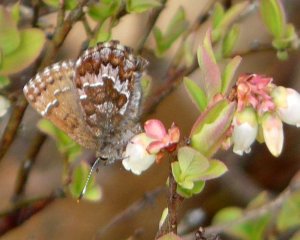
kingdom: Animalia
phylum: Arthropoda
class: Insecta
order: Lepidoptera
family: Lycaenidae
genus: Incisalia
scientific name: Incisalia niphon
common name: Eastern Pine Elfin
